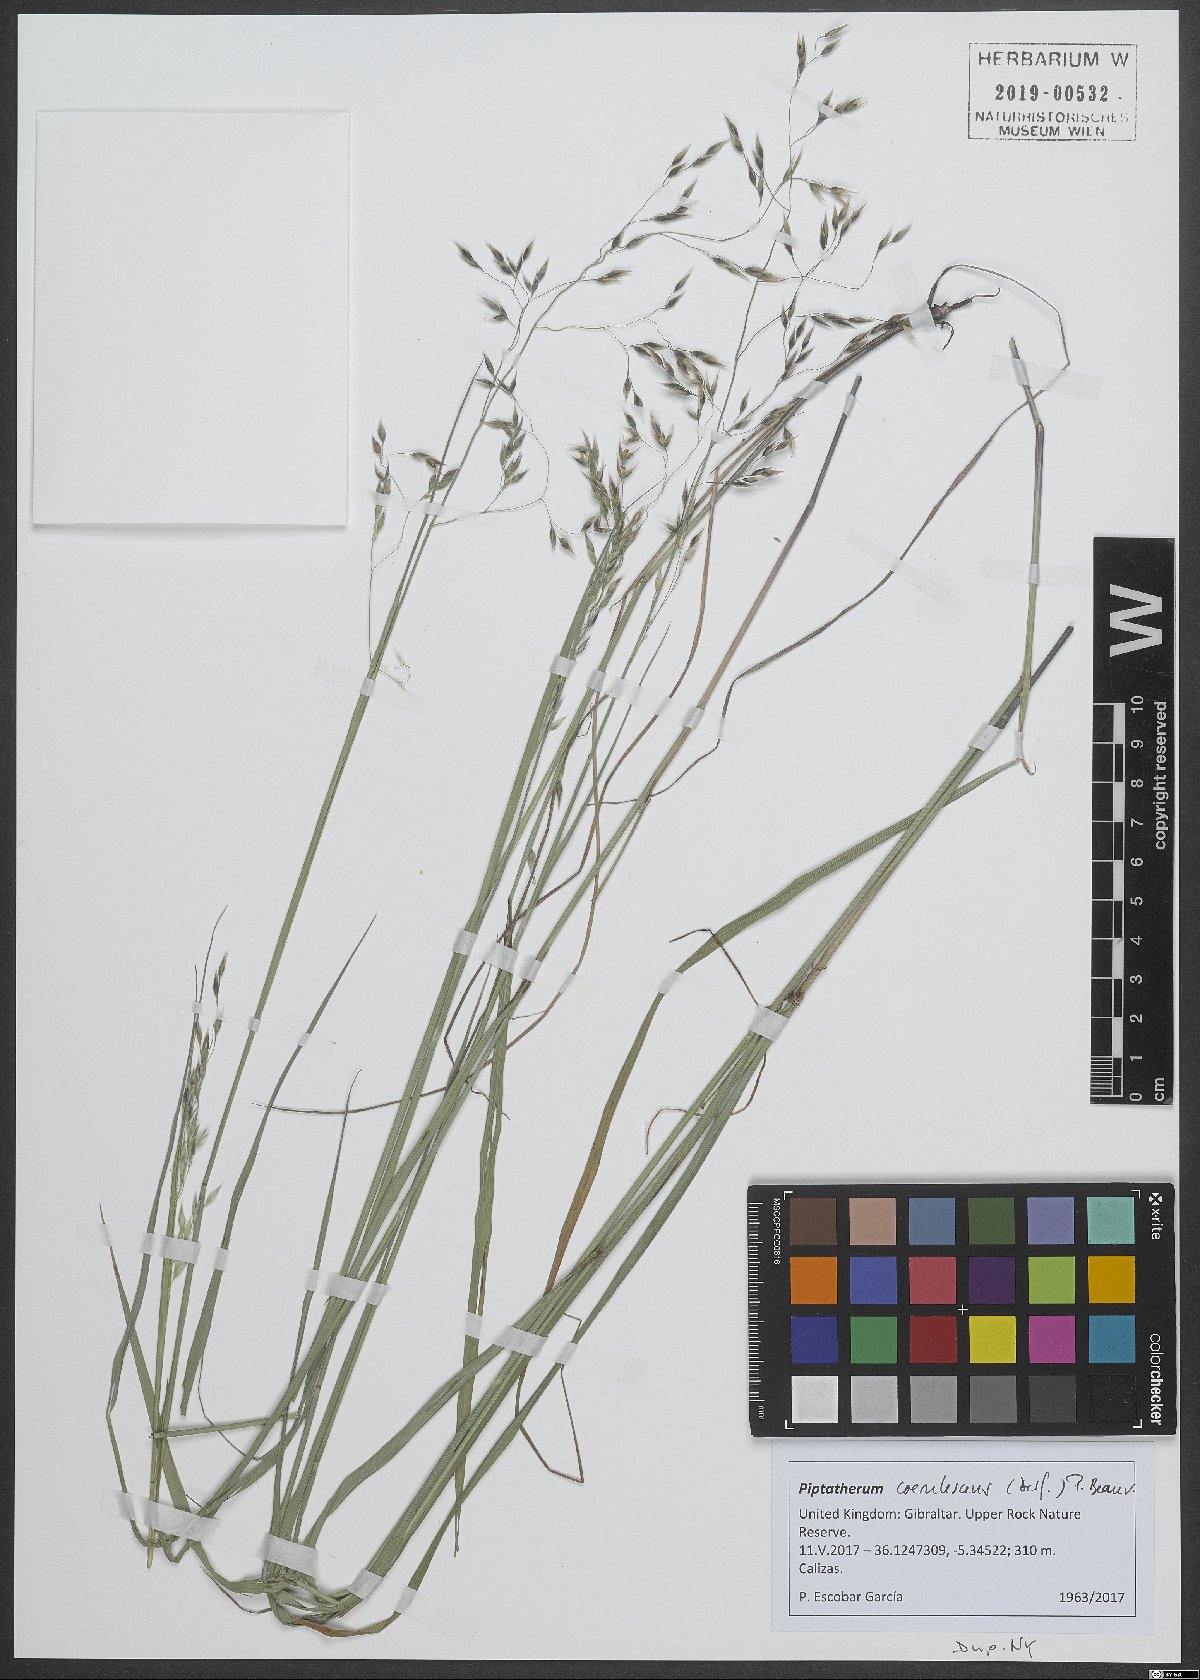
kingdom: Plantae
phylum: Tracheophyta
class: Liliopsida
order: Poales
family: Poaceae
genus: Piptatherum
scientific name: Piptatherum coerulescens
